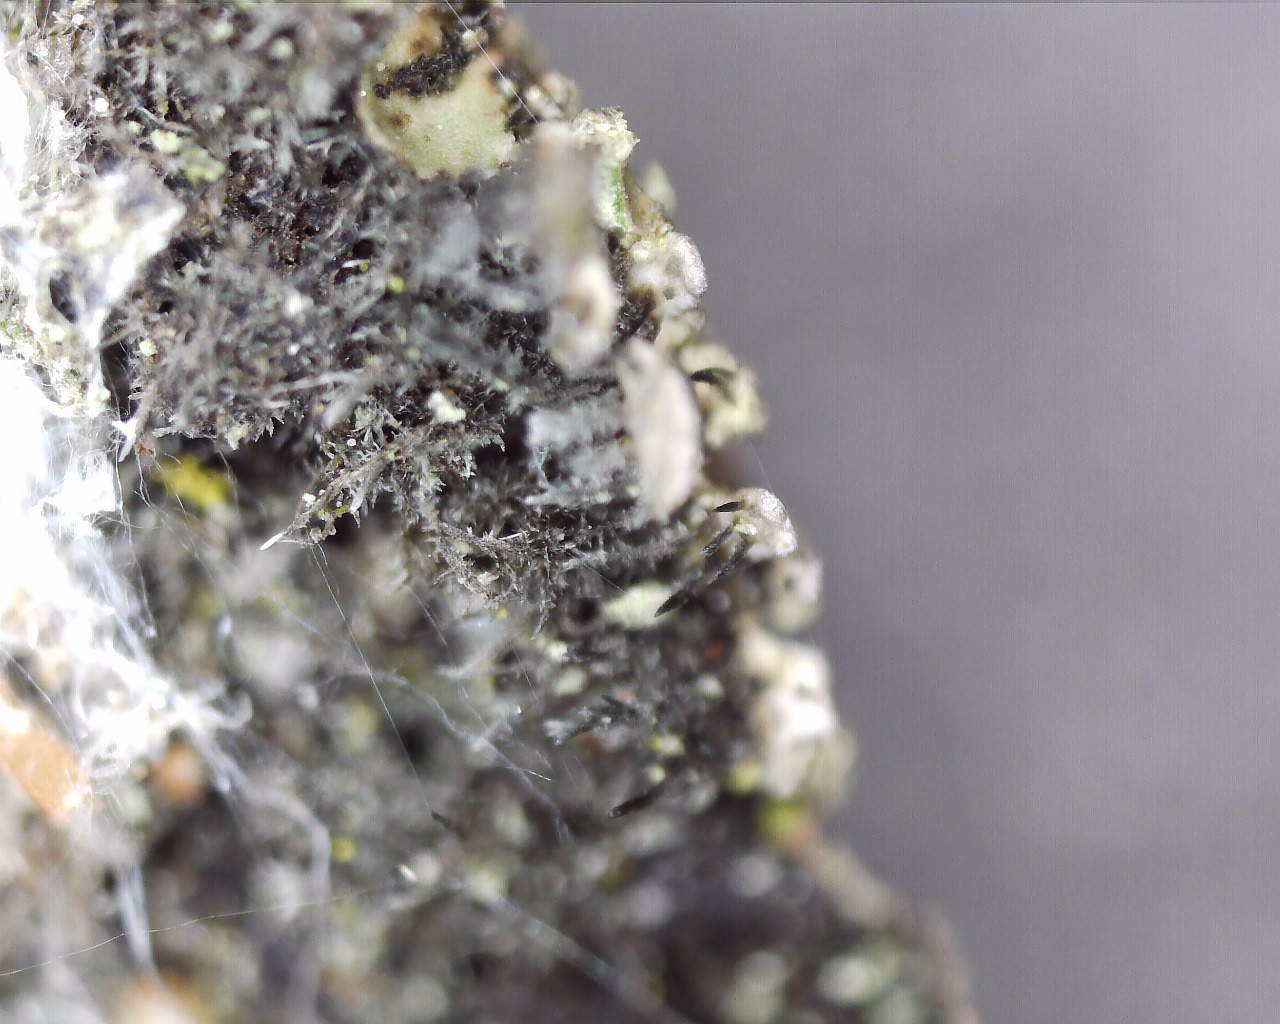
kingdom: Fungi
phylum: Ascomycota
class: Lecanoromycetes
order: Caliciales
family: Physciaceae
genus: Physconia
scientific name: Physconia
